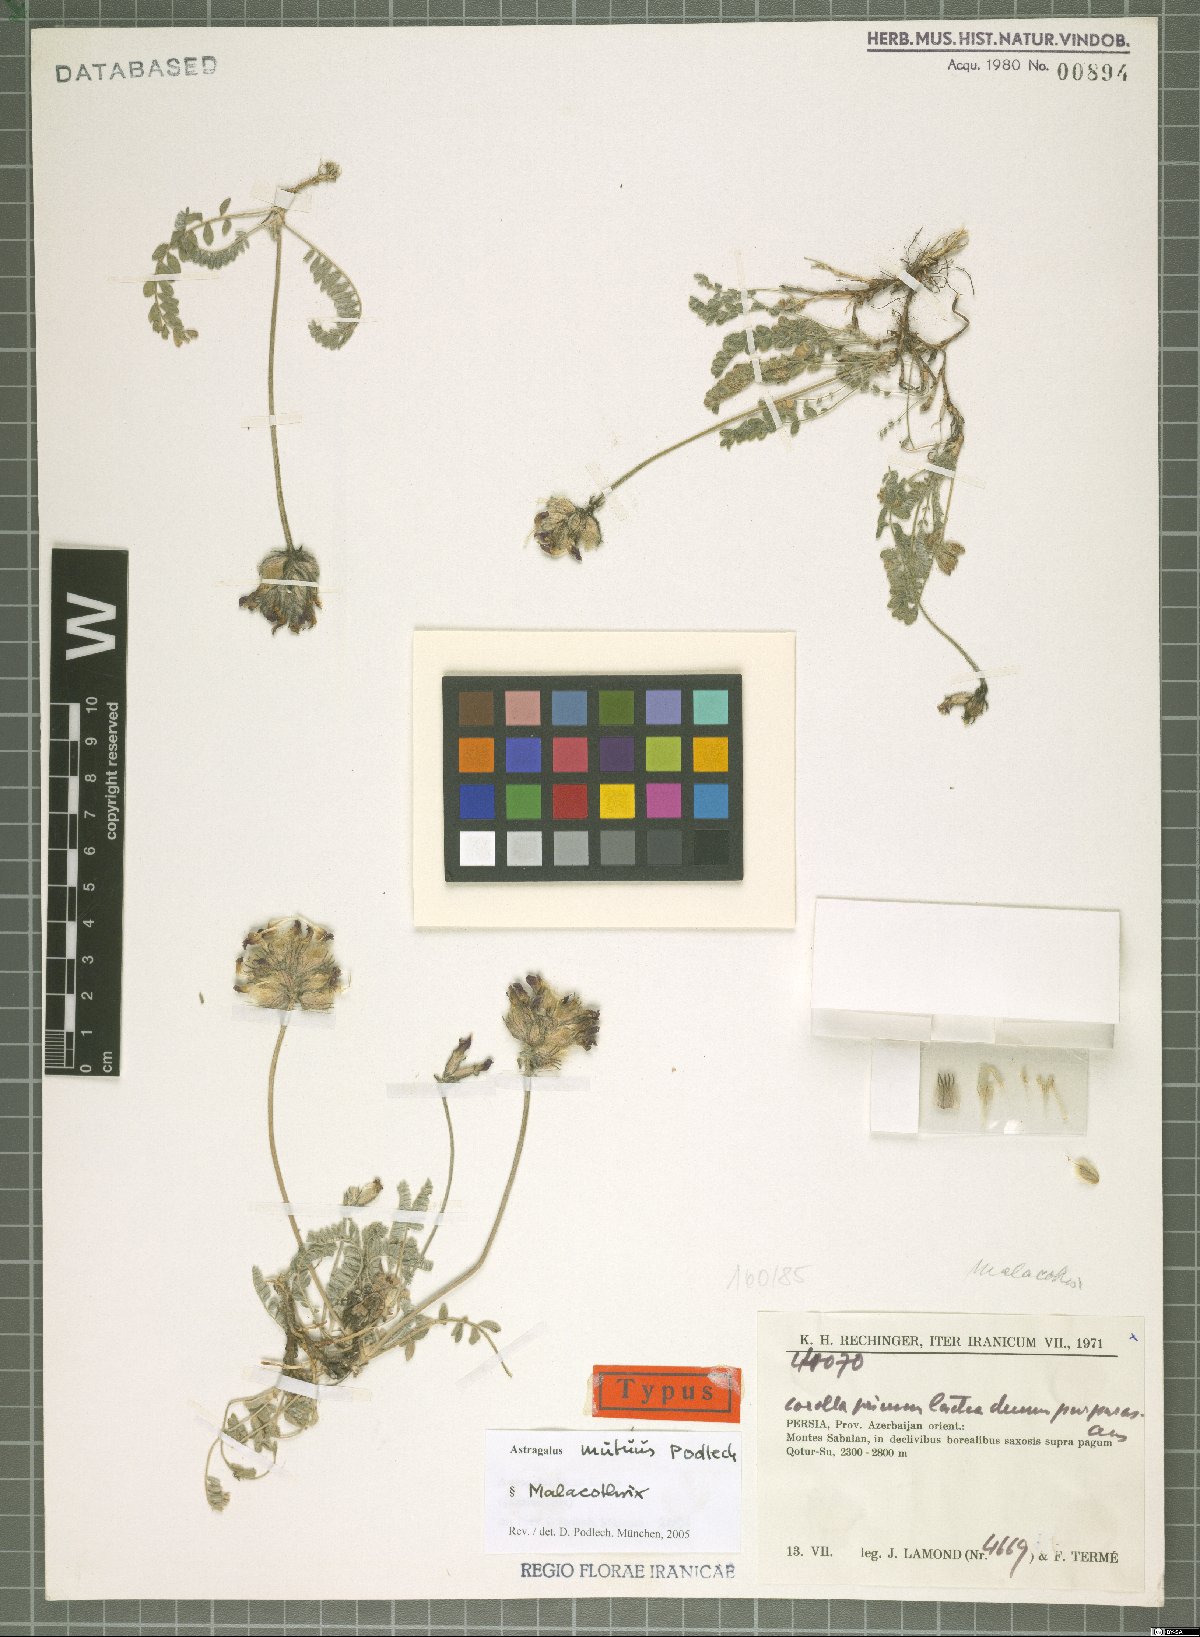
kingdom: Plantae
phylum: Tracheophyta
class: Magnoliopsida
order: Fabales
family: Fabaceae
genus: Astragalus
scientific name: Astragalus mutus
